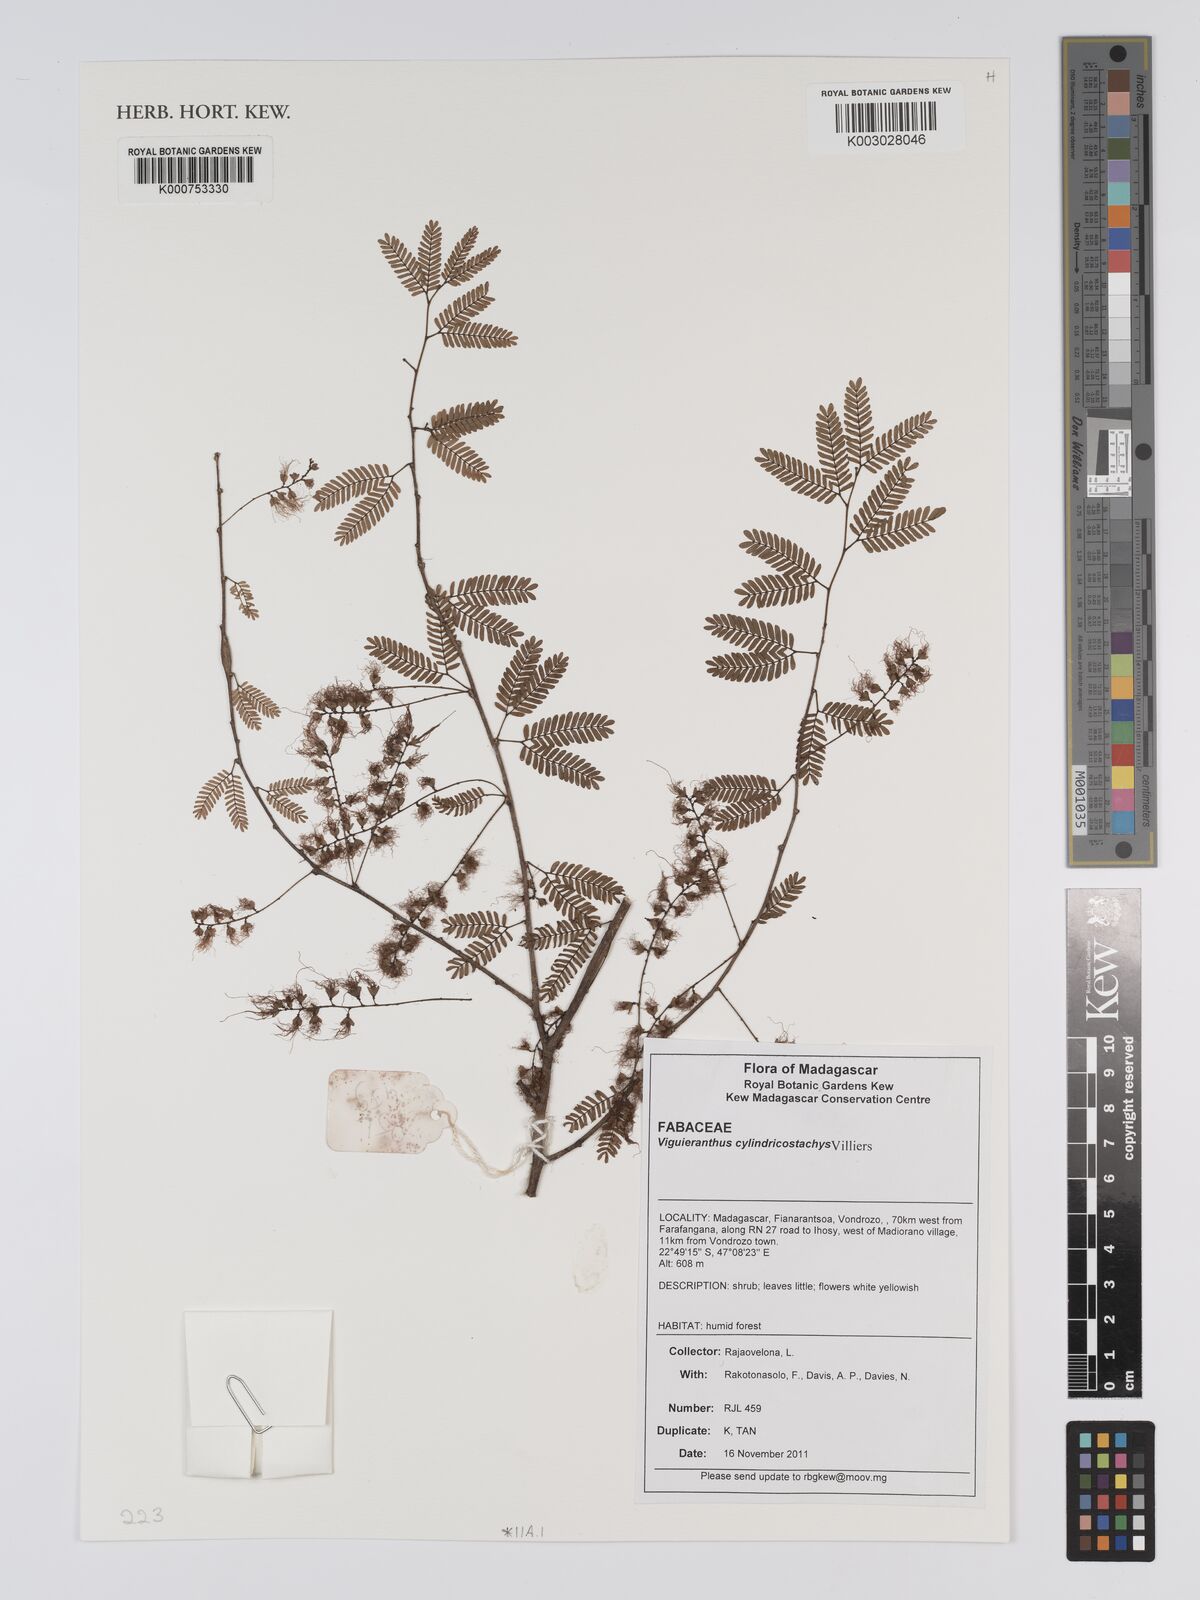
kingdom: Plantae
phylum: Tracheophyta
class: Magnoliopsida
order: Fabales
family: Fabaceae
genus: Viguieranthus
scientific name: Viguieranthus cylindricostachys
